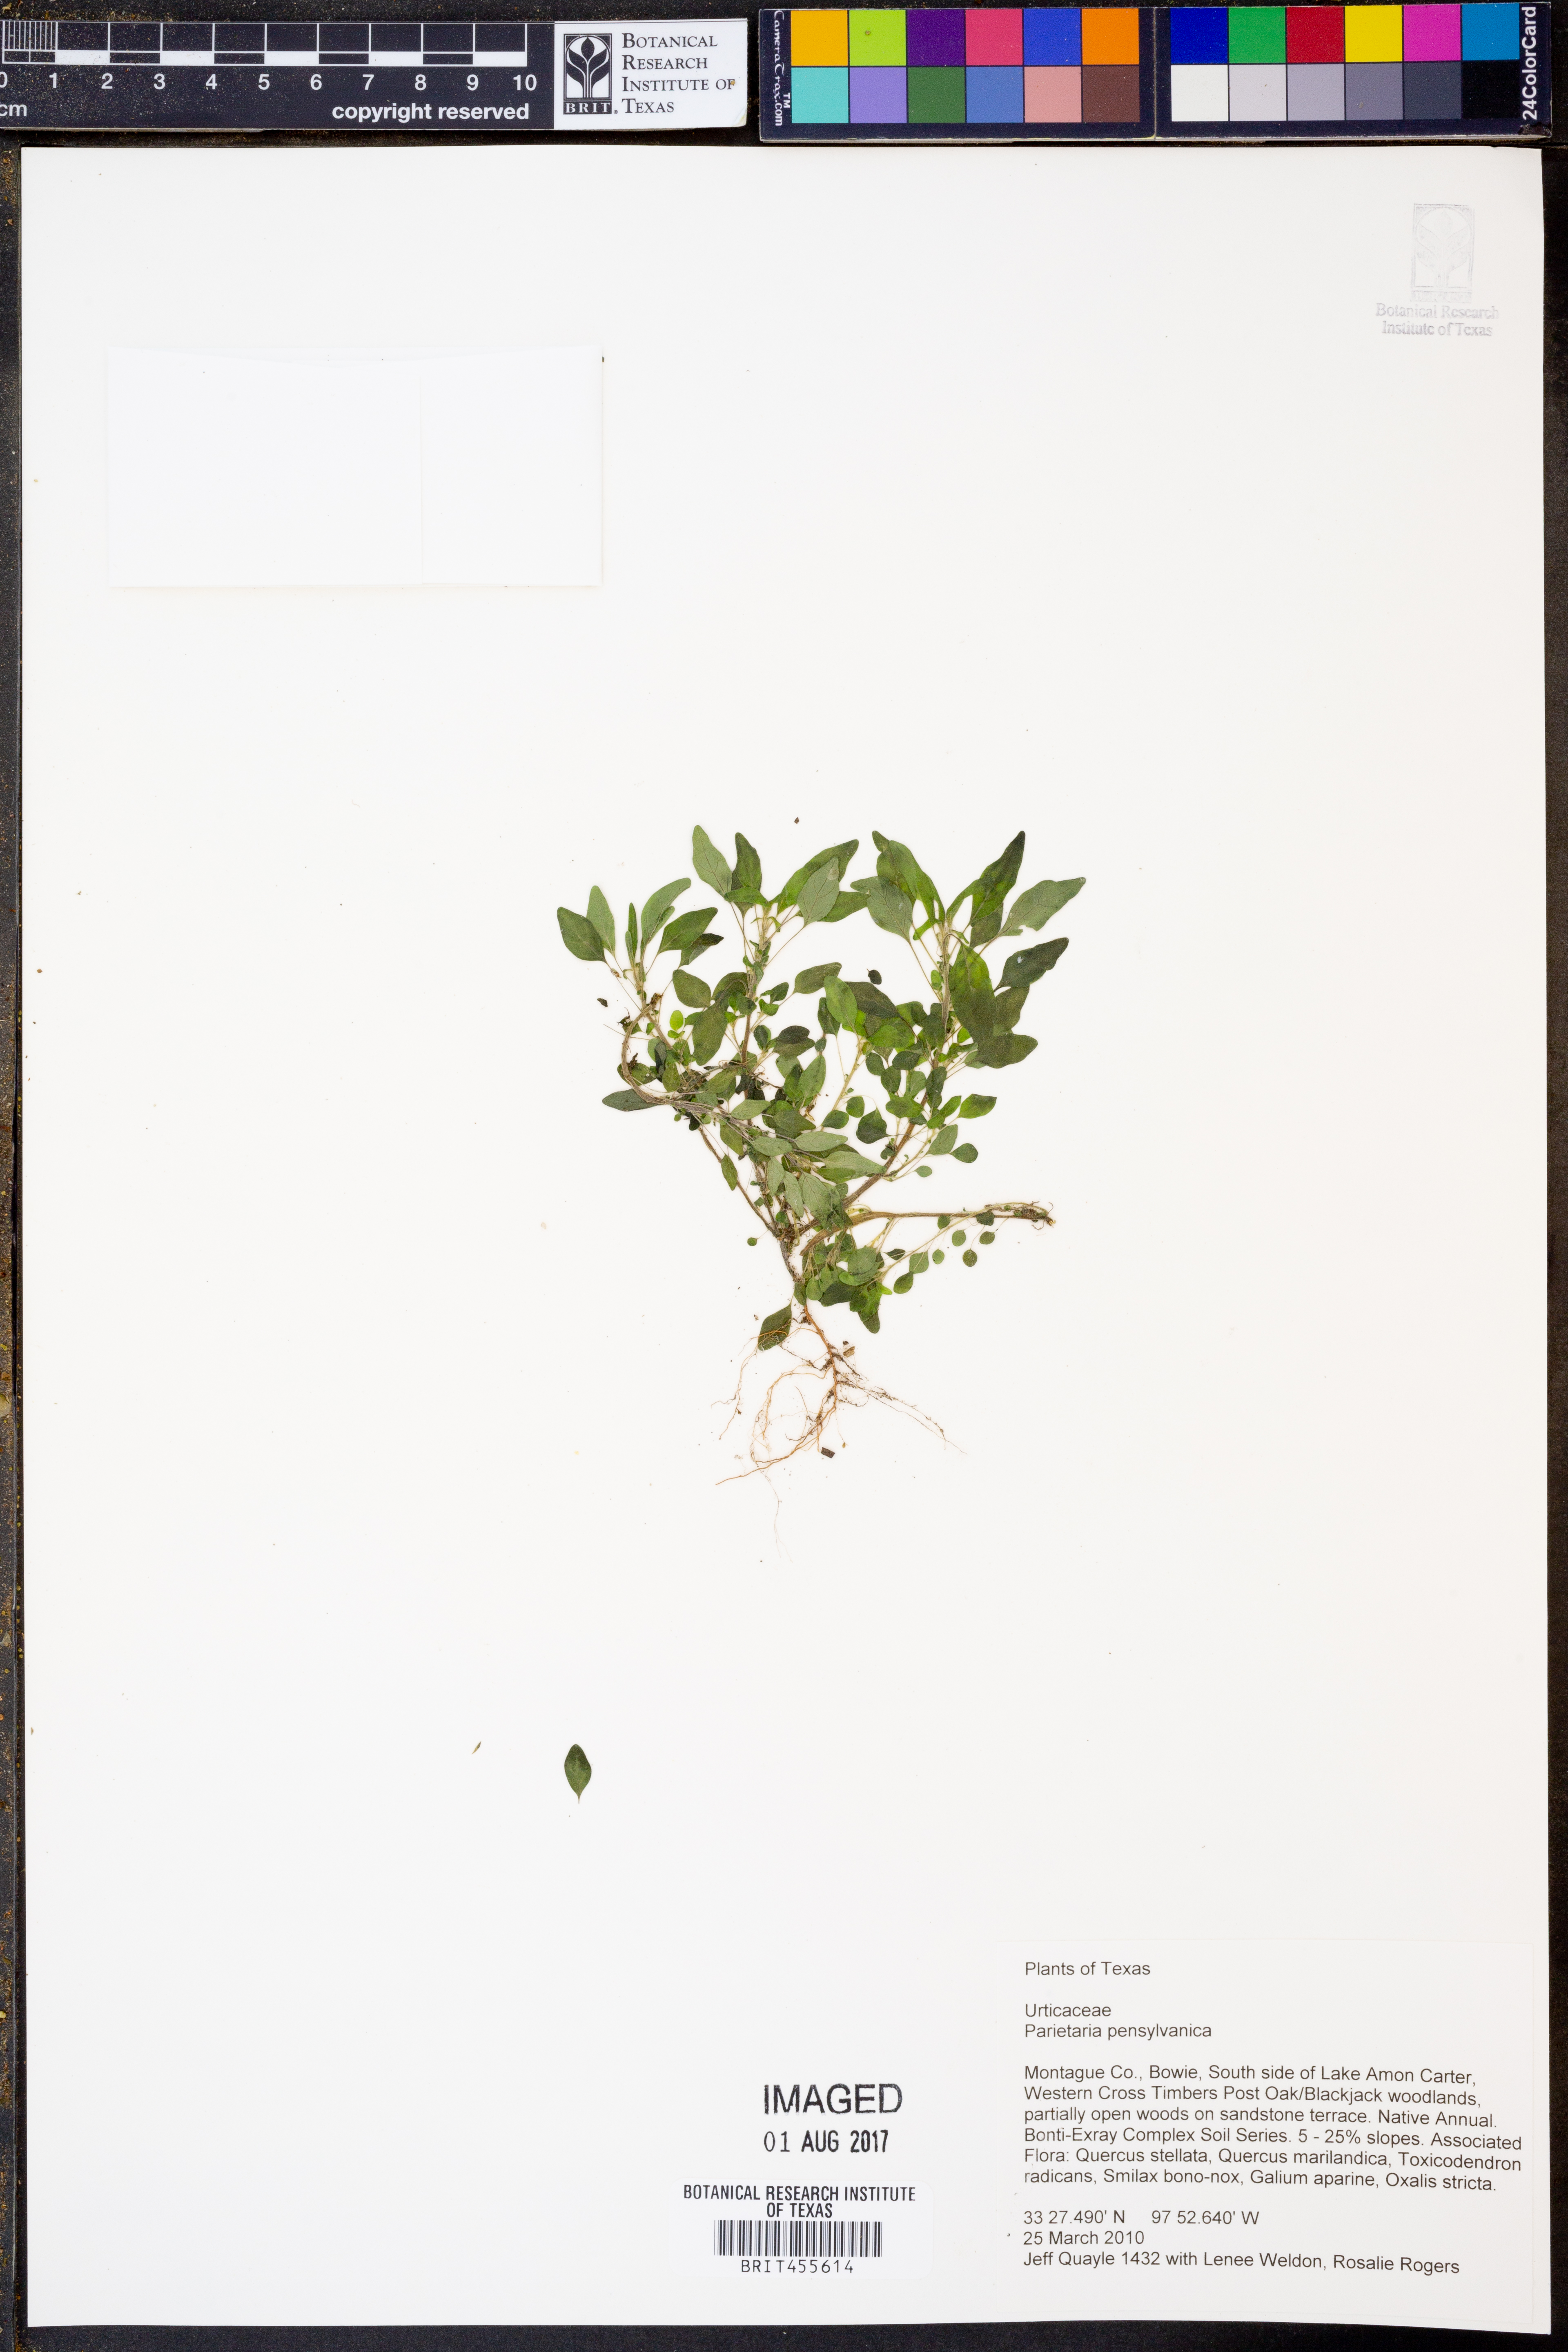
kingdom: Plantae
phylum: Tracheophyta
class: Magnoliopsida
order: Rosales
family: Urticaceae
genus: Parietaria
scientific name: Parietaria pensylvanica
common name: Pennsylvania pellitory
